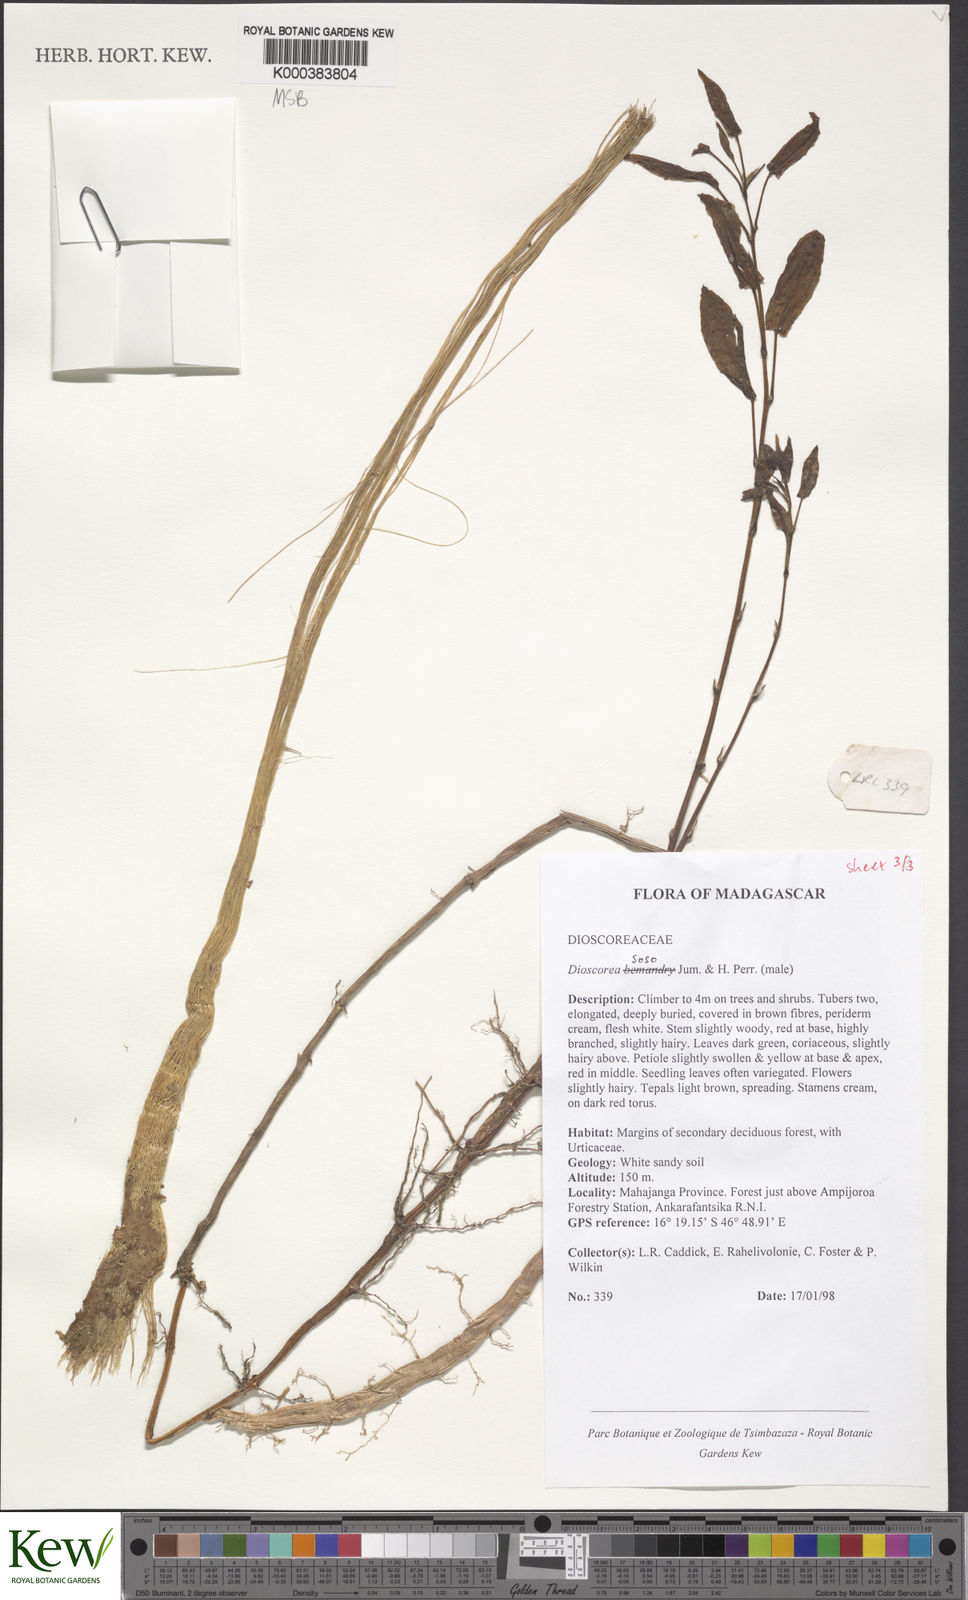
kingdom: Plantae
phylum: Tracheophyta
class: Liliopsida
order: Dioscoreales
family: Dioscoreaceae
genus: Dioscorea
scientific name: Dioscorea
